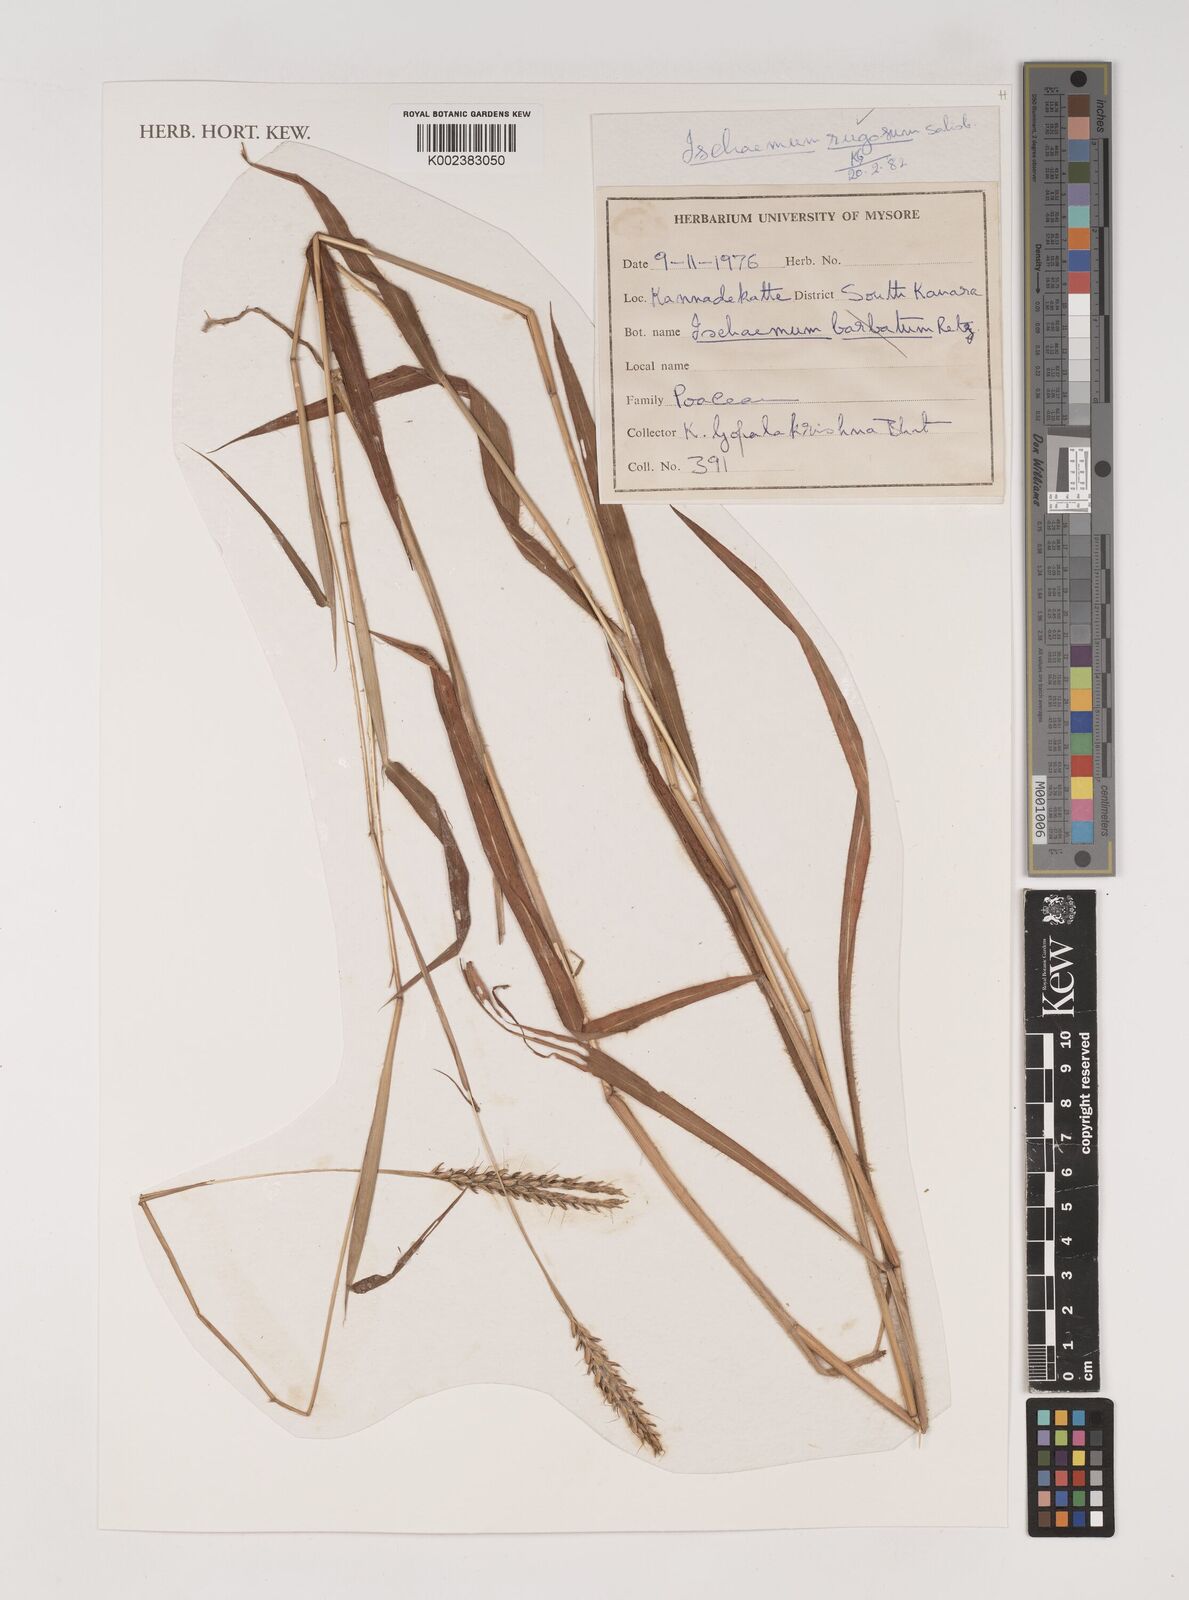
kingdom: Plantae
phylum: Tracheophyta
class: Liliopsida
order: Poales
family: Poaceae
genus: Ischaemum
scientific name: Ischaemum rugosum
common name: Saramatta grass
